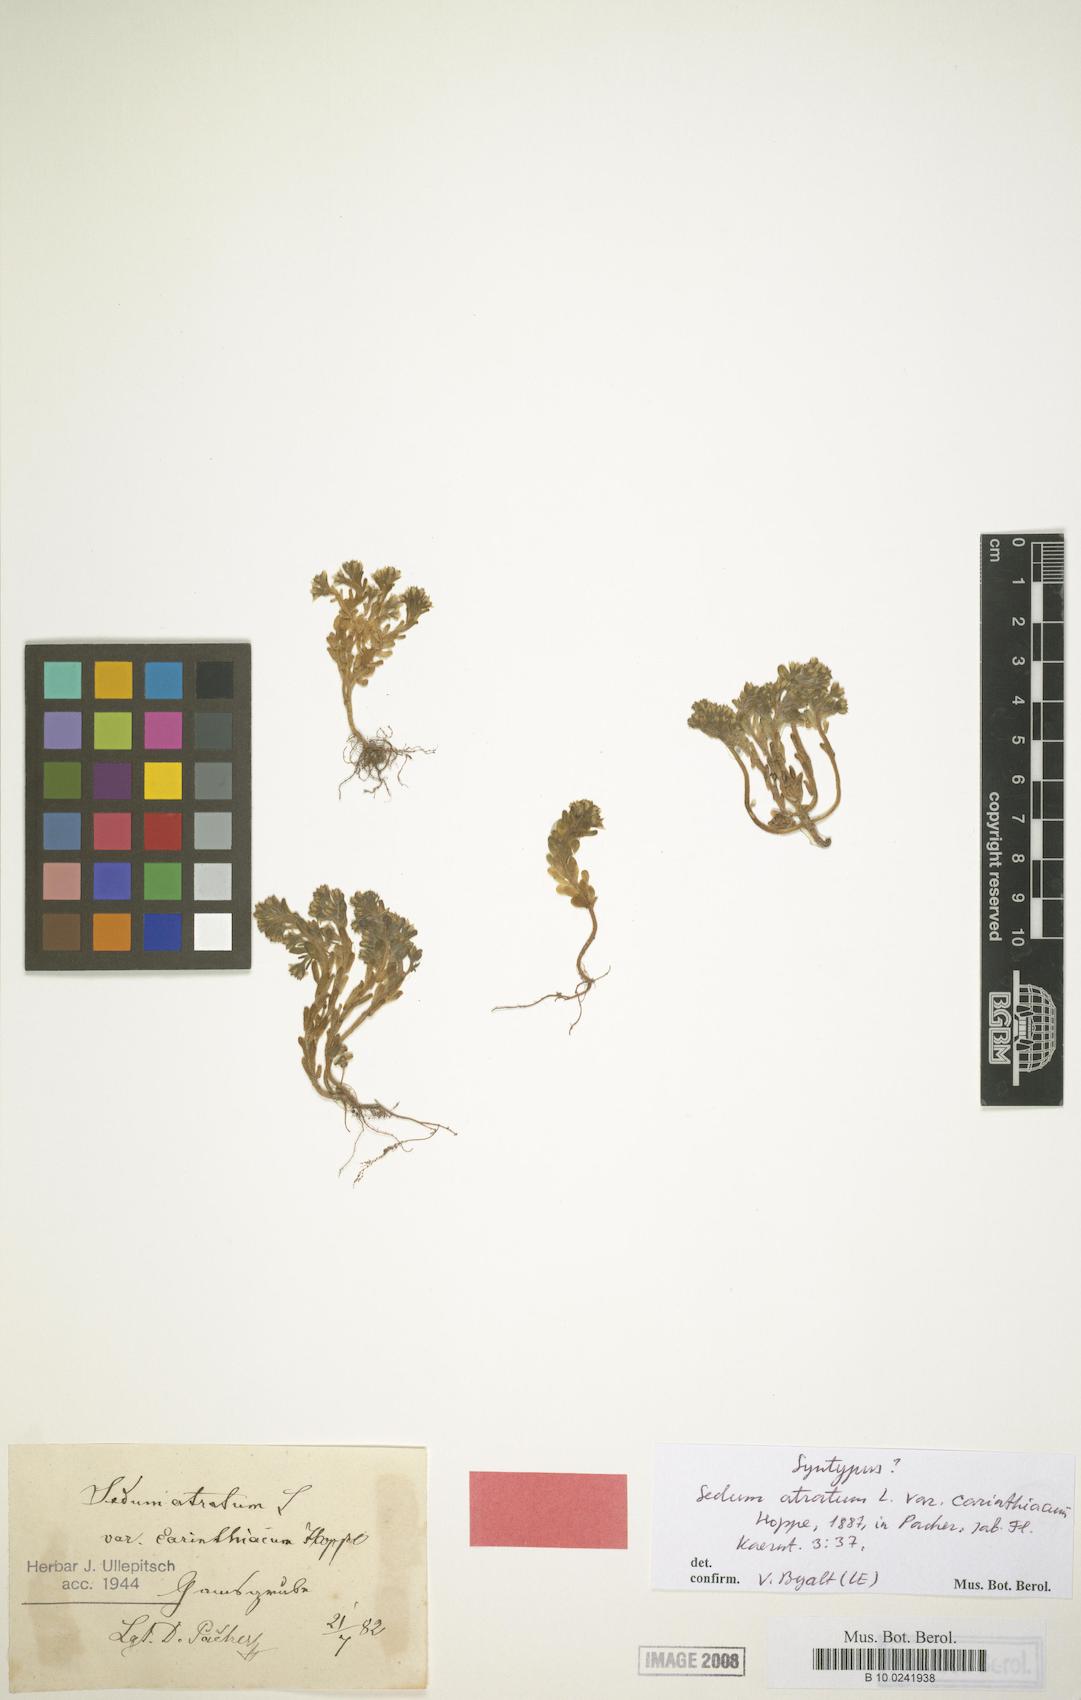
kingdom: Plantae
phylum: Tracheophyta
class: Magnoliopsida
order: Saxifragales
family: Crassulaceae
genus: Sedum
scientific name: Sedum atratum
